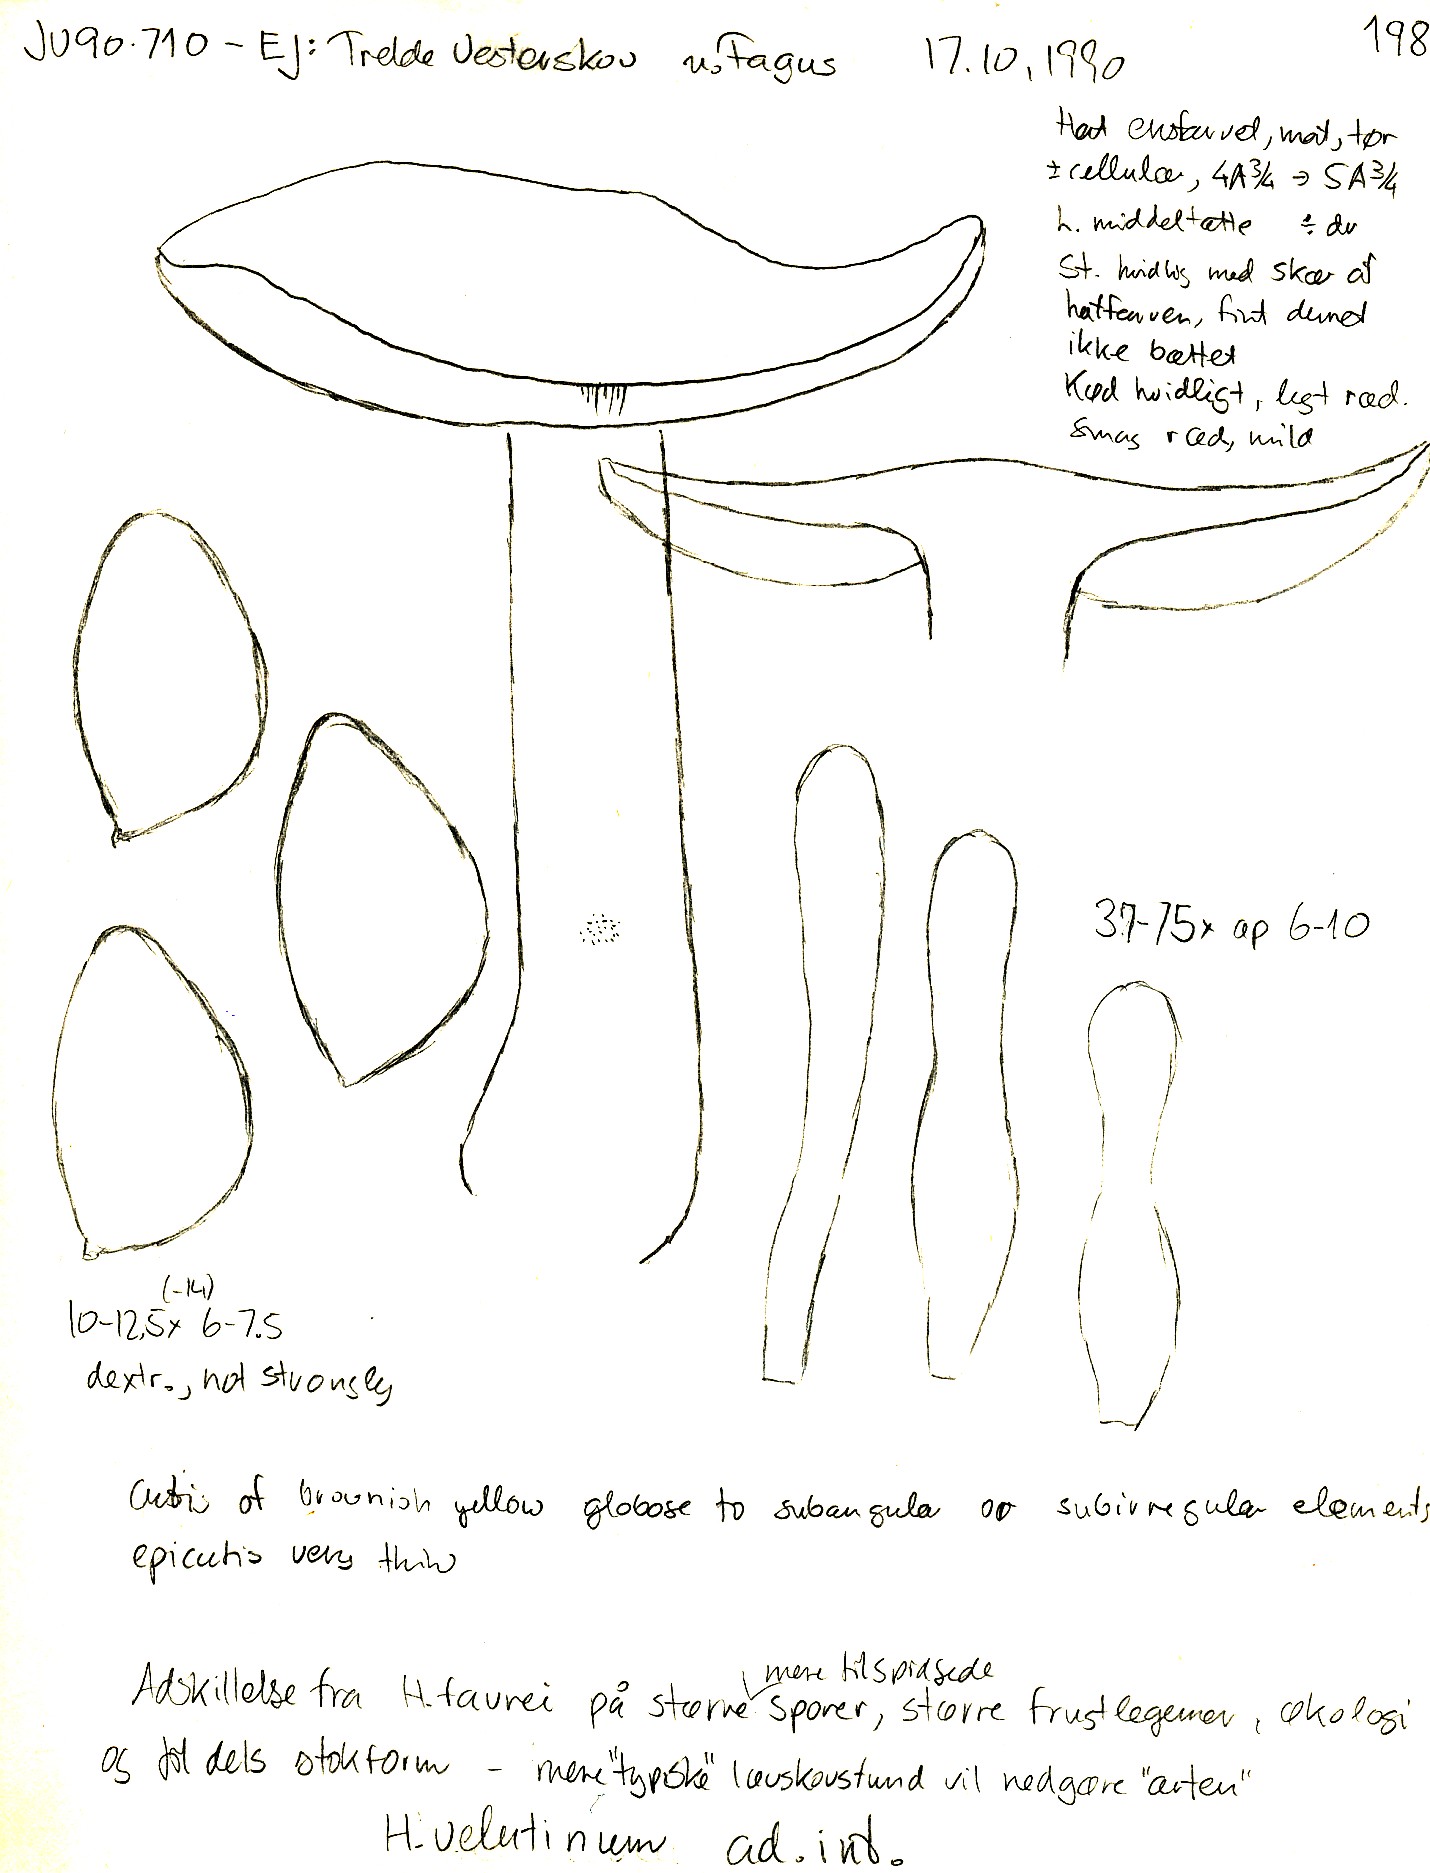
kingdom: Fungi
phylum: Basidiomycota
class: Agaricomycetes
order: Agaricales
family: Hymenogastraceae
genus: Hebeloma
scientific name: Hebeloma leucosarx
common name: højstokket tåreblad
